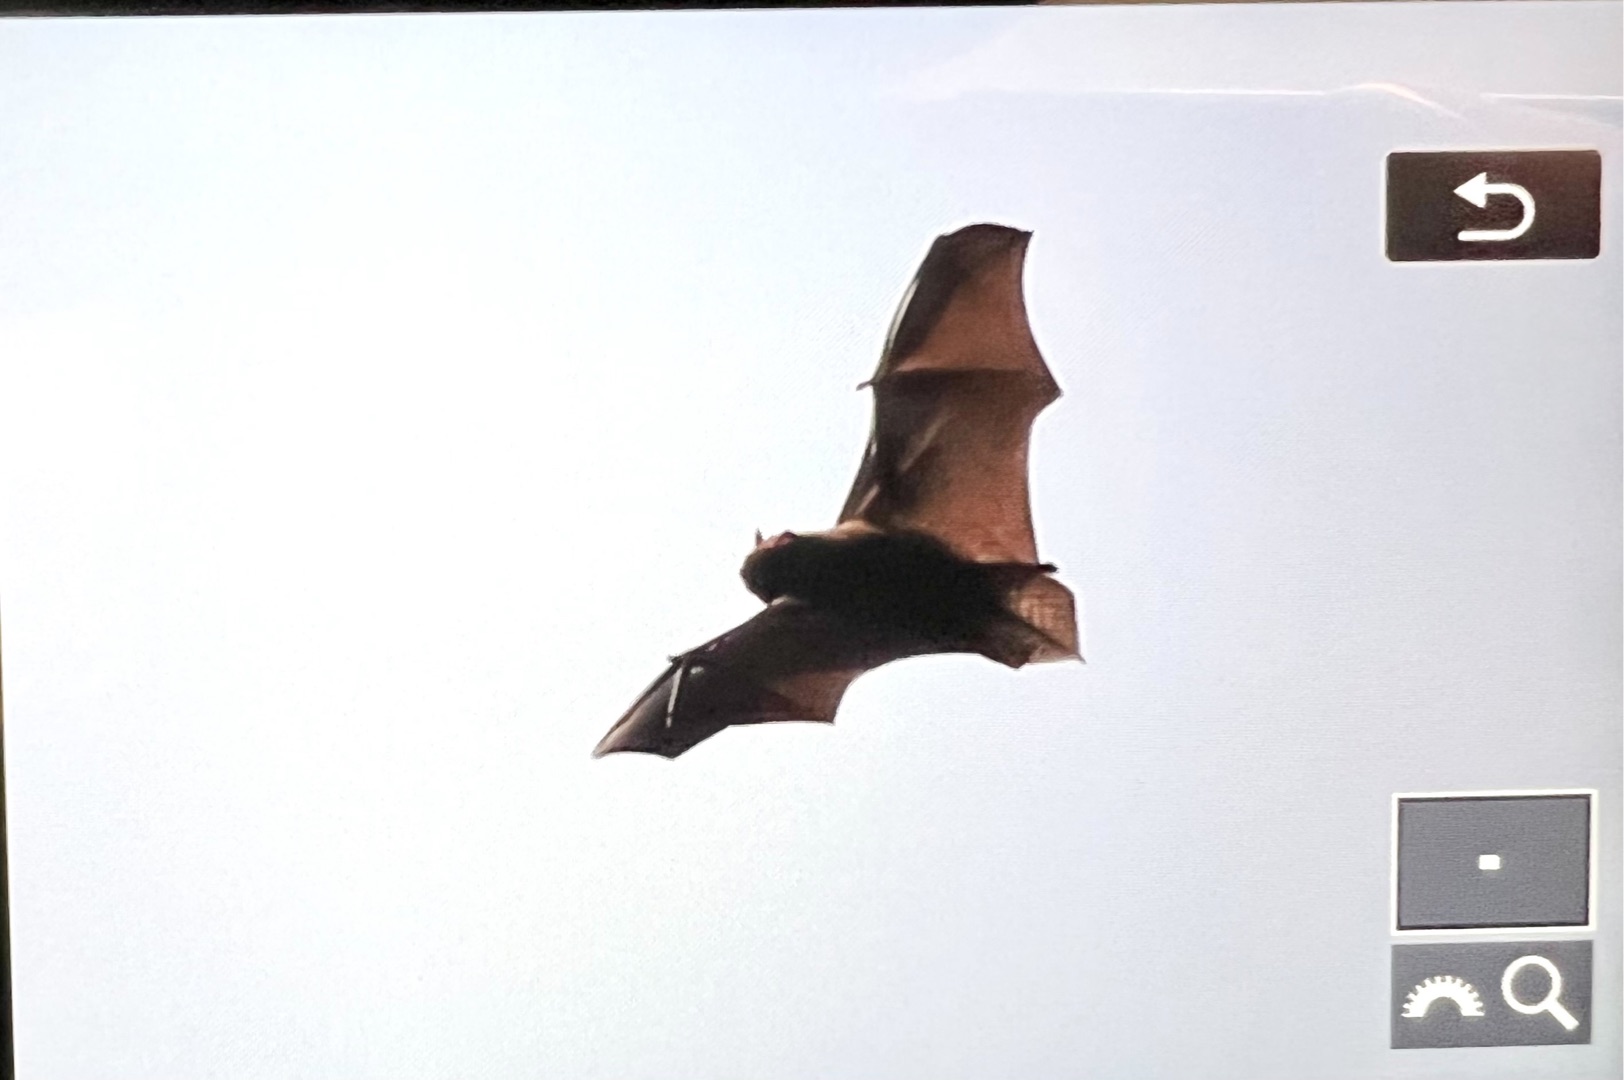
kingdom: Animalia
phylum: Chordata
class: Mammalia
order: Chiroptera
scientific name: Chiroptera
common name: Flagermus
